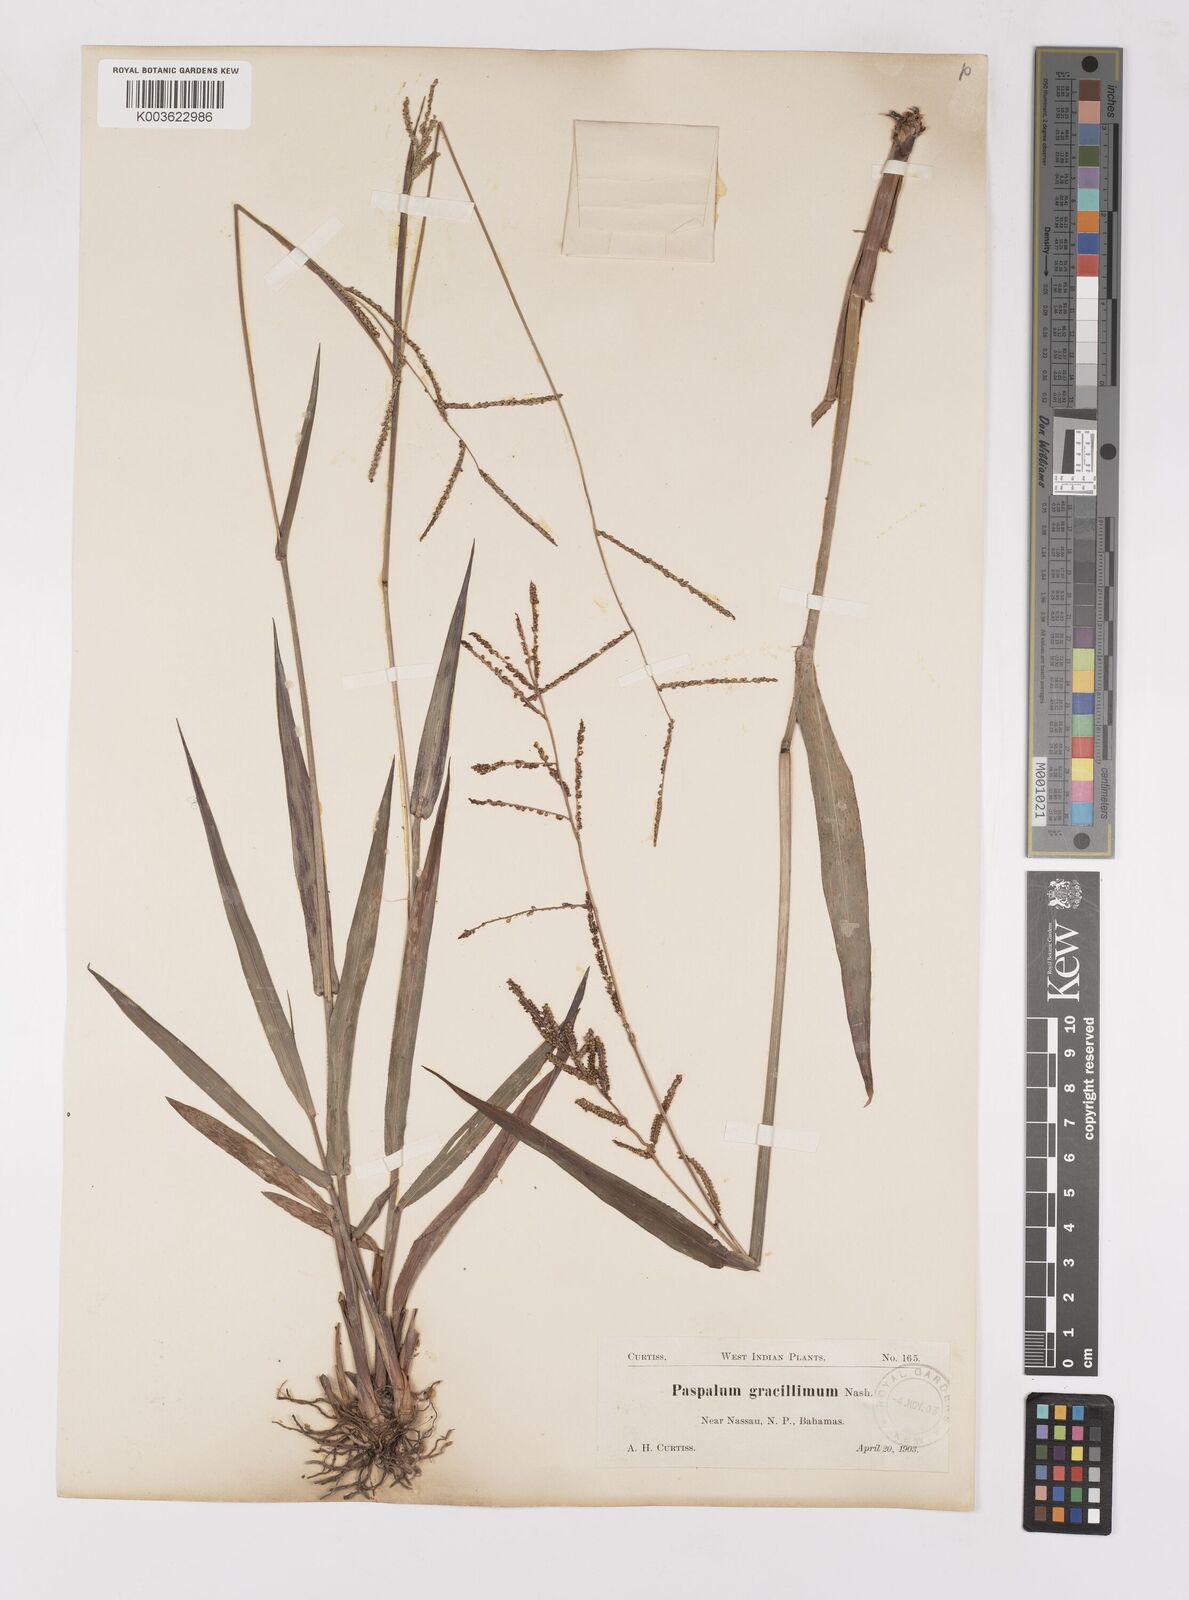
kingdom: Plantae
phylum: Tracheophyta
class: Liliopsida
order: Poales
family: Poaceae
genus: Paspalum
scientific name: Paspalum blodgettii
